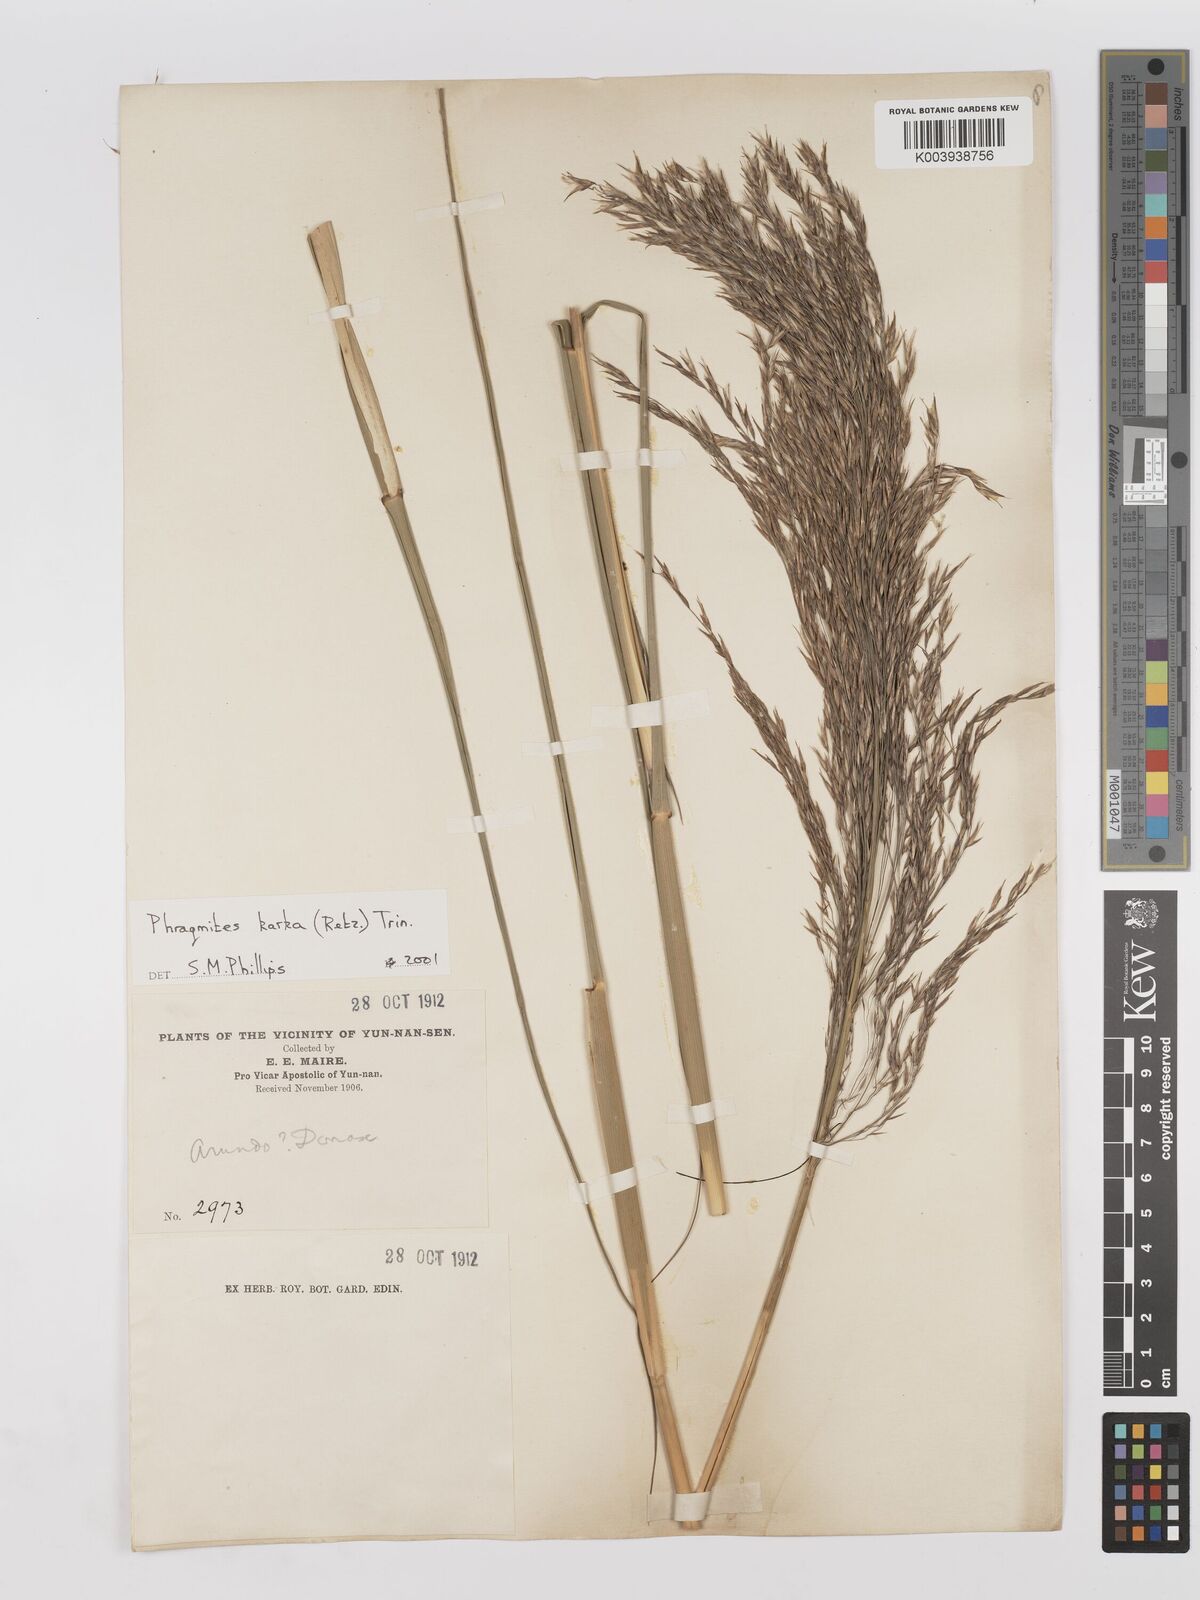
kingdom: Plantae
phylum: Tracheophyta
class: Liliopsida
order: Poales
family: Poaceae
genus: Phragmites
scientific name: Phragmites karka
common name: Tropical reed
